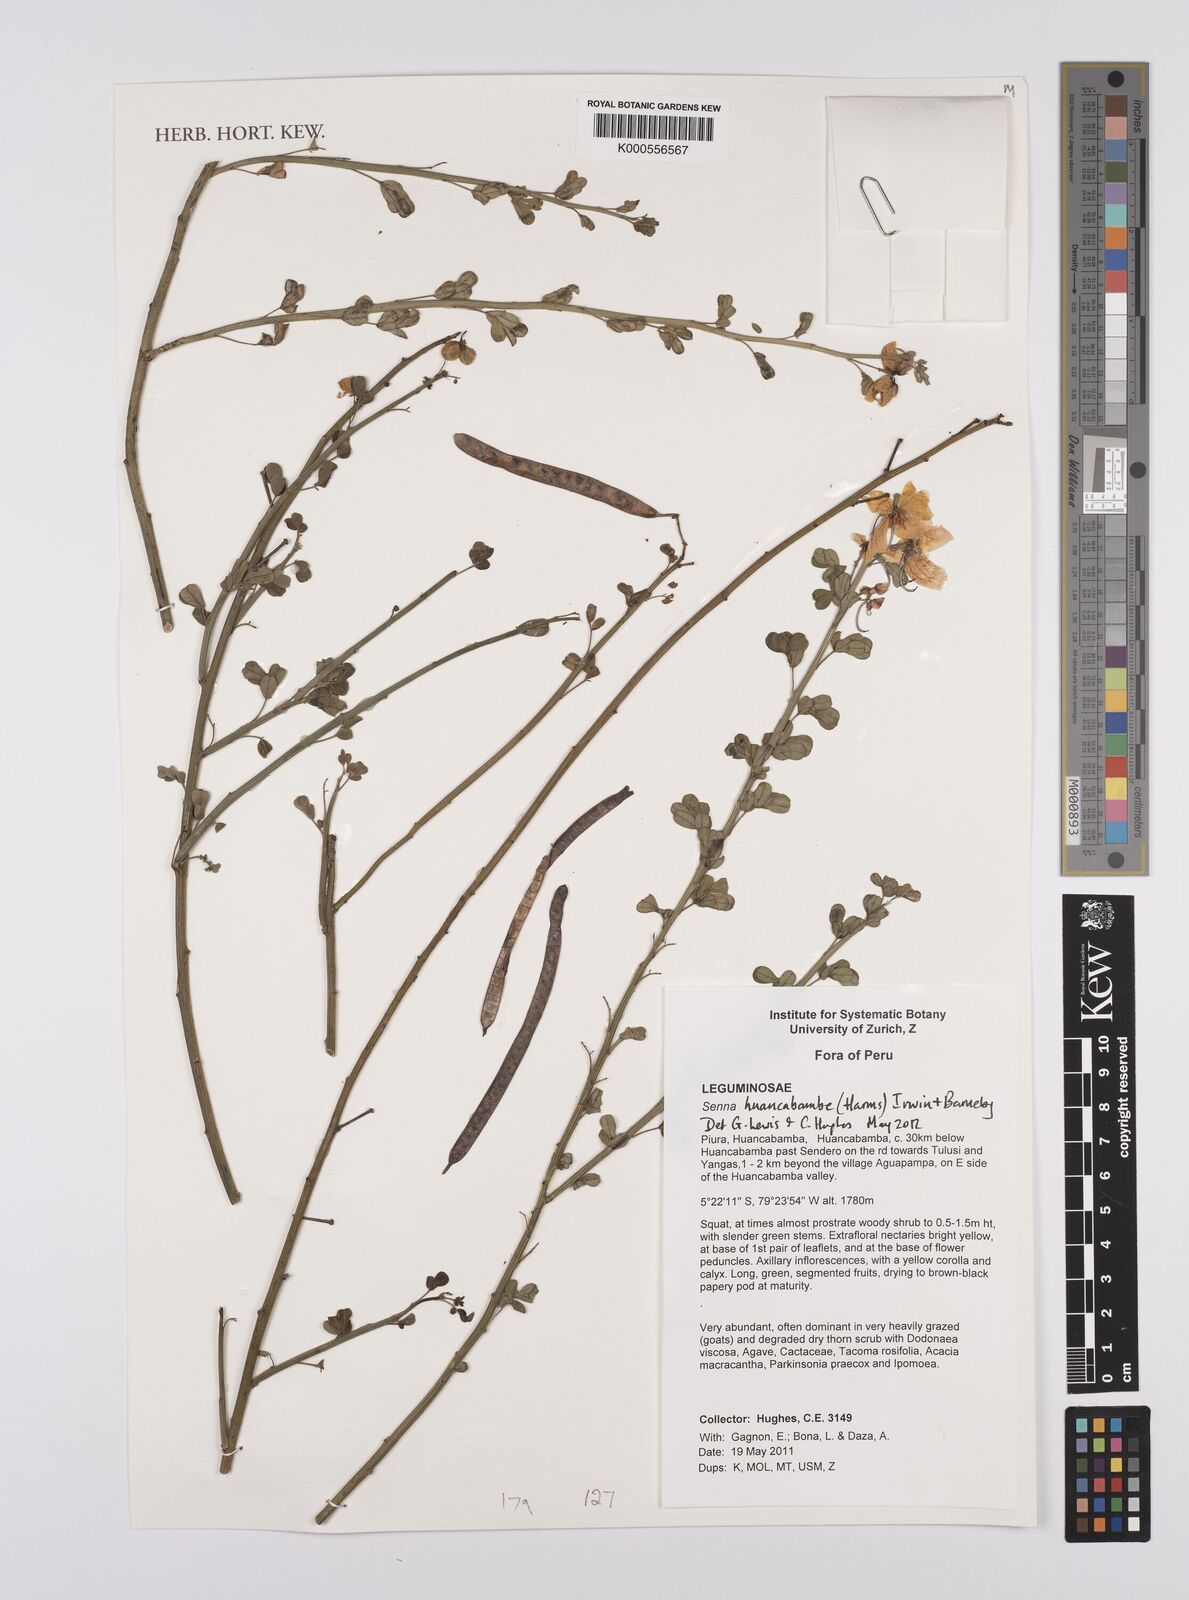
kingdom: Plantae
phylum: Tracheophyta
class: Magnoliopsida
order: Fabales
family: Fabaceae
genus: Senna
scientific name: Senna huancabambae
